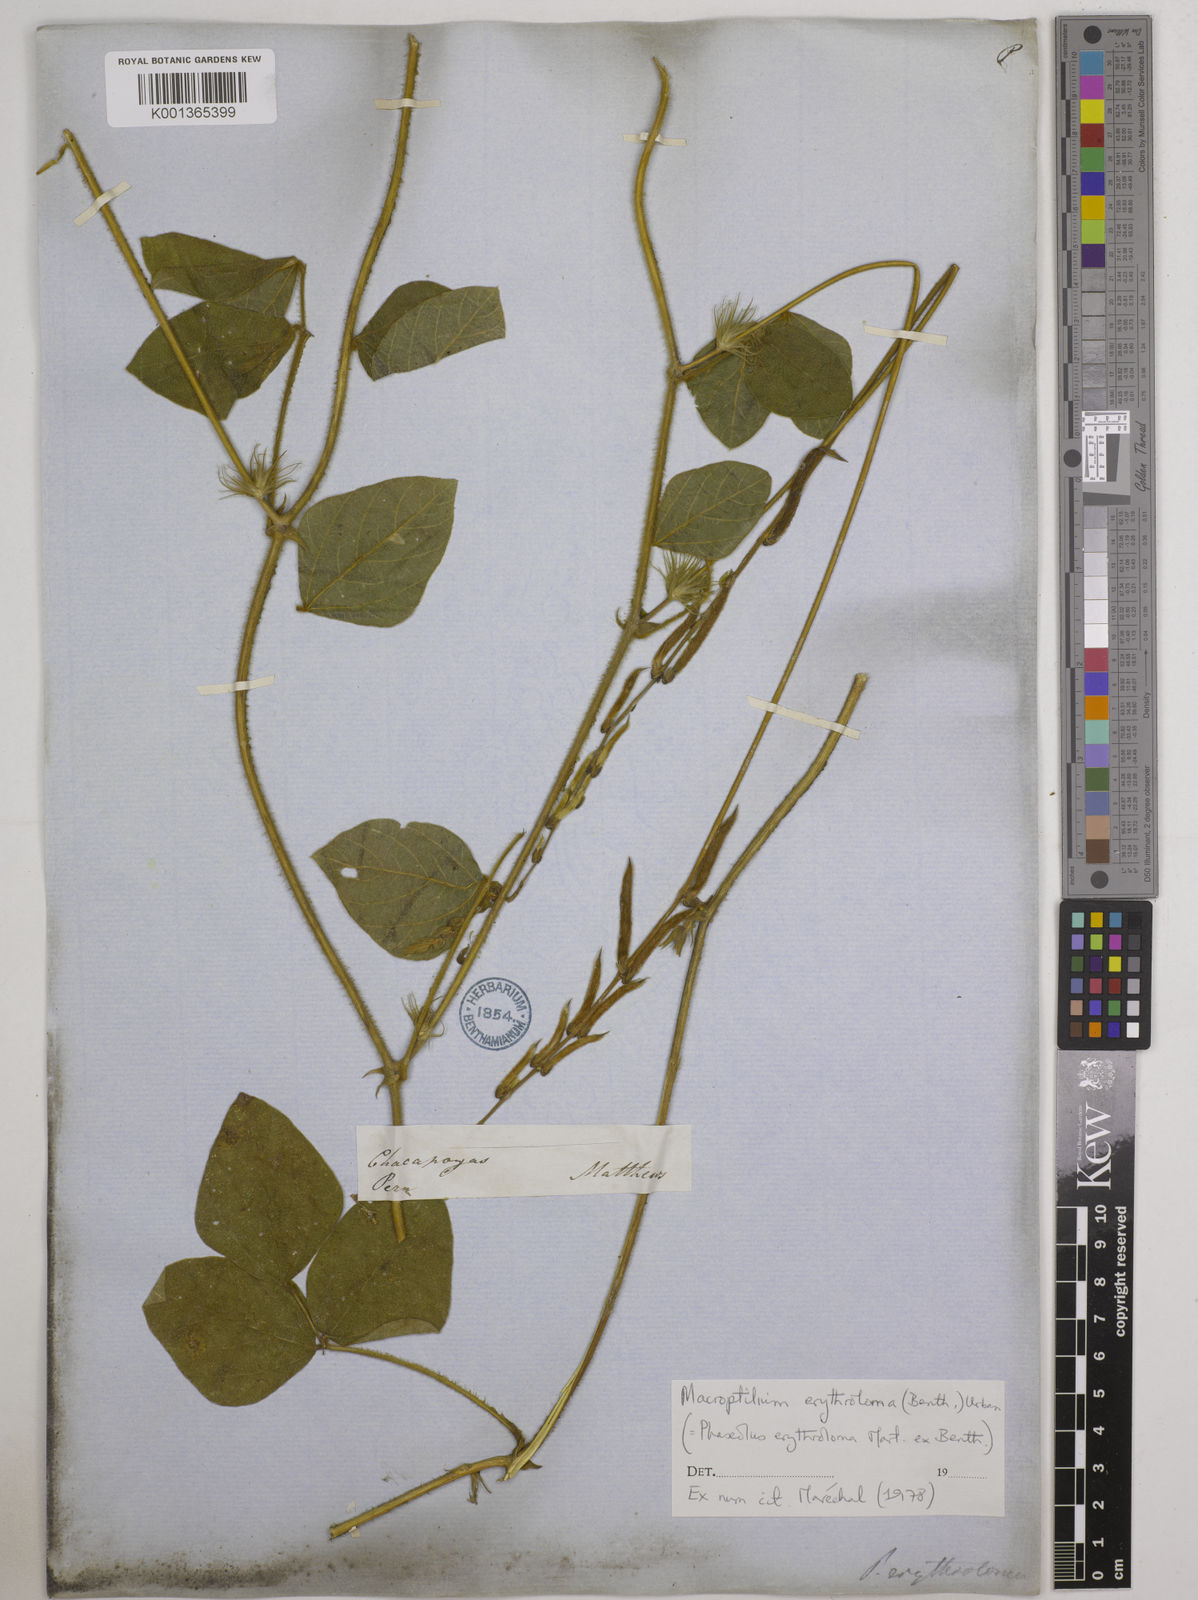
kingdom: Plantae
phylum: Tracheophyta
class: Magnoliopsida
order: Fabales
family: Fabaceae
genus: Macroptilium
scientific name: Macroptilium erythroloma
